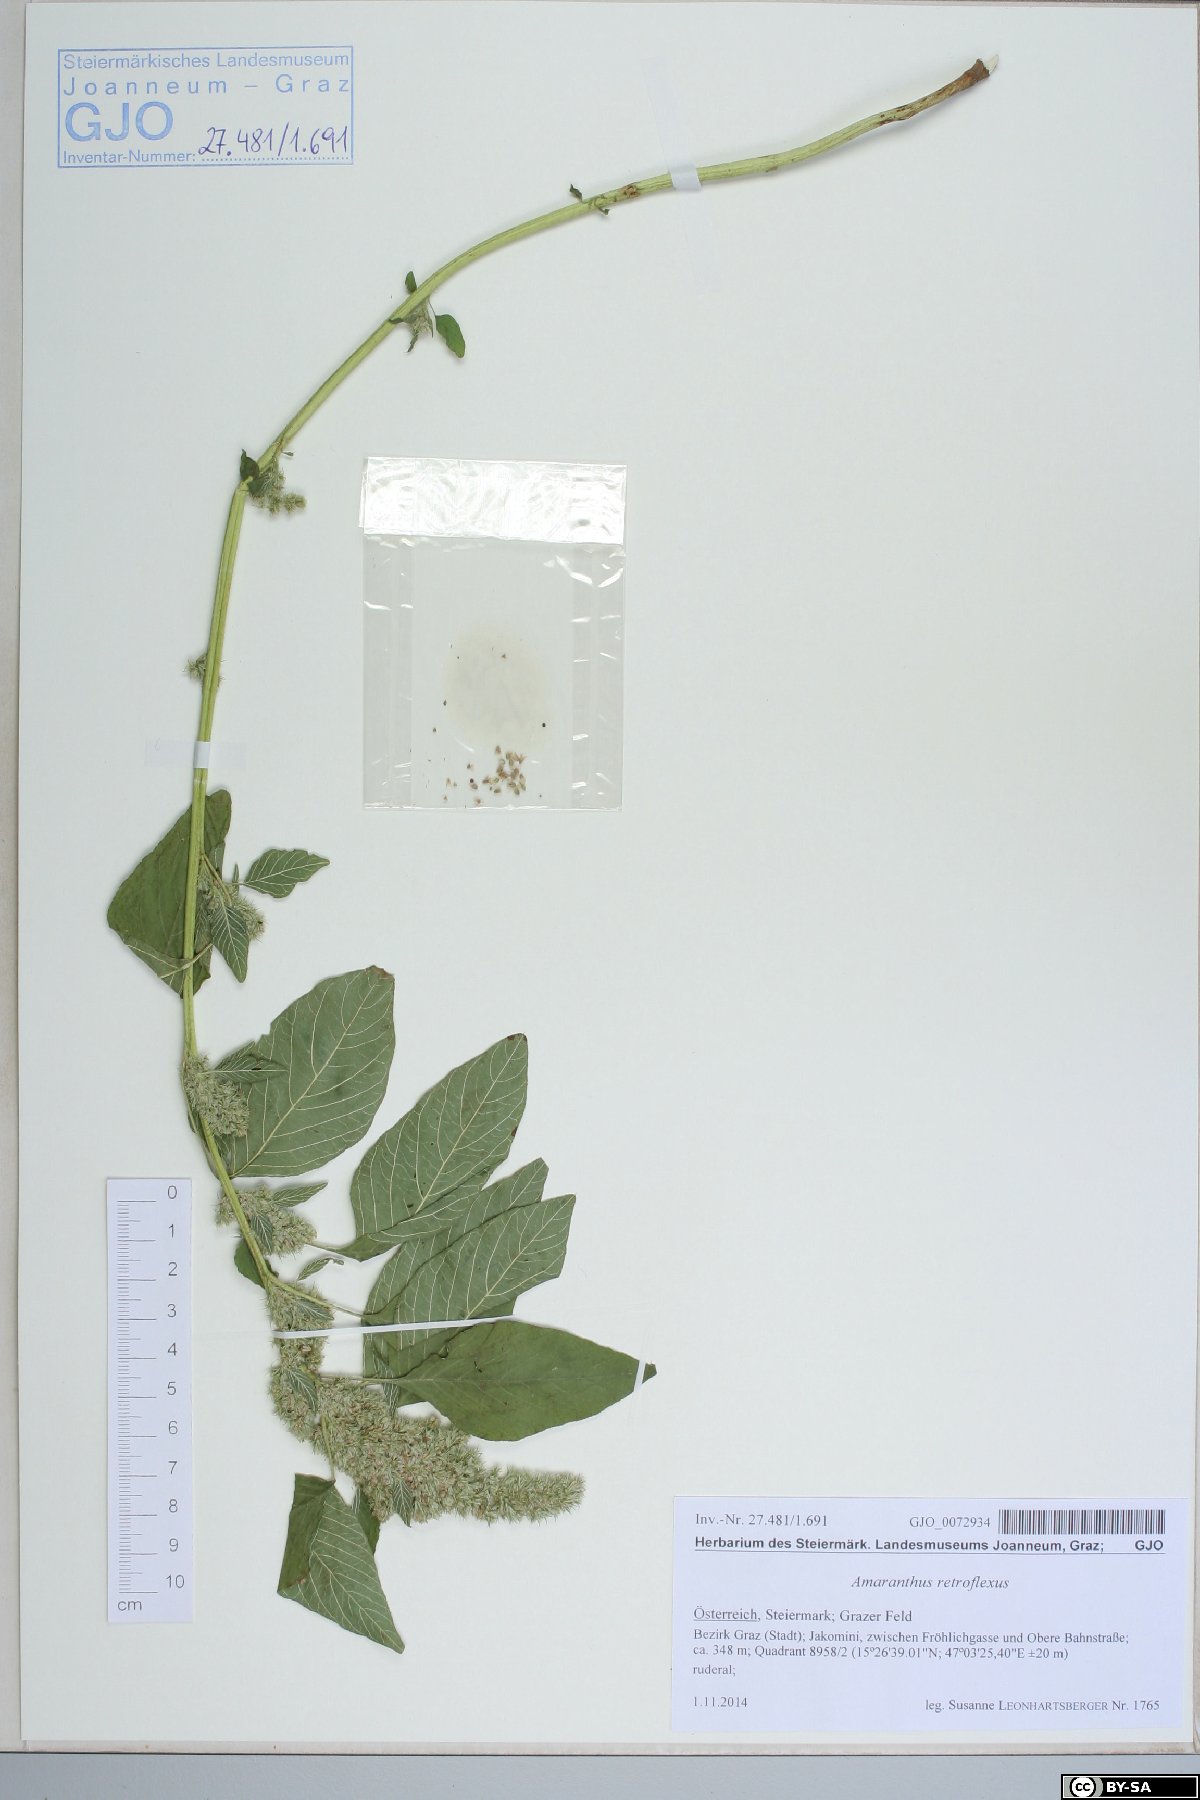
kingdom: Plantae
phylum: Tracheophyta
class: Magnoliopsida
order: Caryophyllales
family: Amaranthaceae
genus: Amaranthus
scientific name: Amaranthus retroflexus
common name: Redroot amaranth
